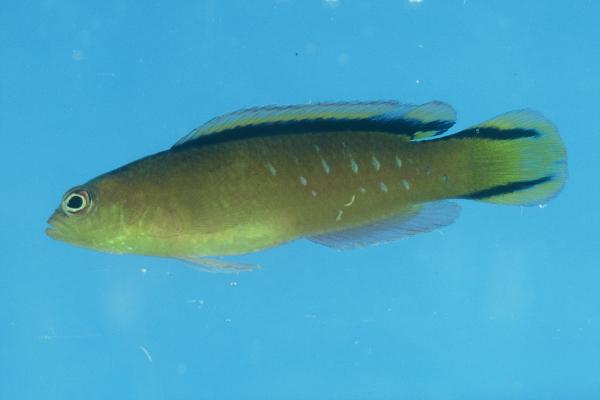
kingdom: Animalia
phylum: Chordata
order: Perciformes
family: Pseudochromidae
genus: Pseudochromis
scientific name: Pseudochromis tapeinosoma
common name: Horseshoe-tailed dottyback
